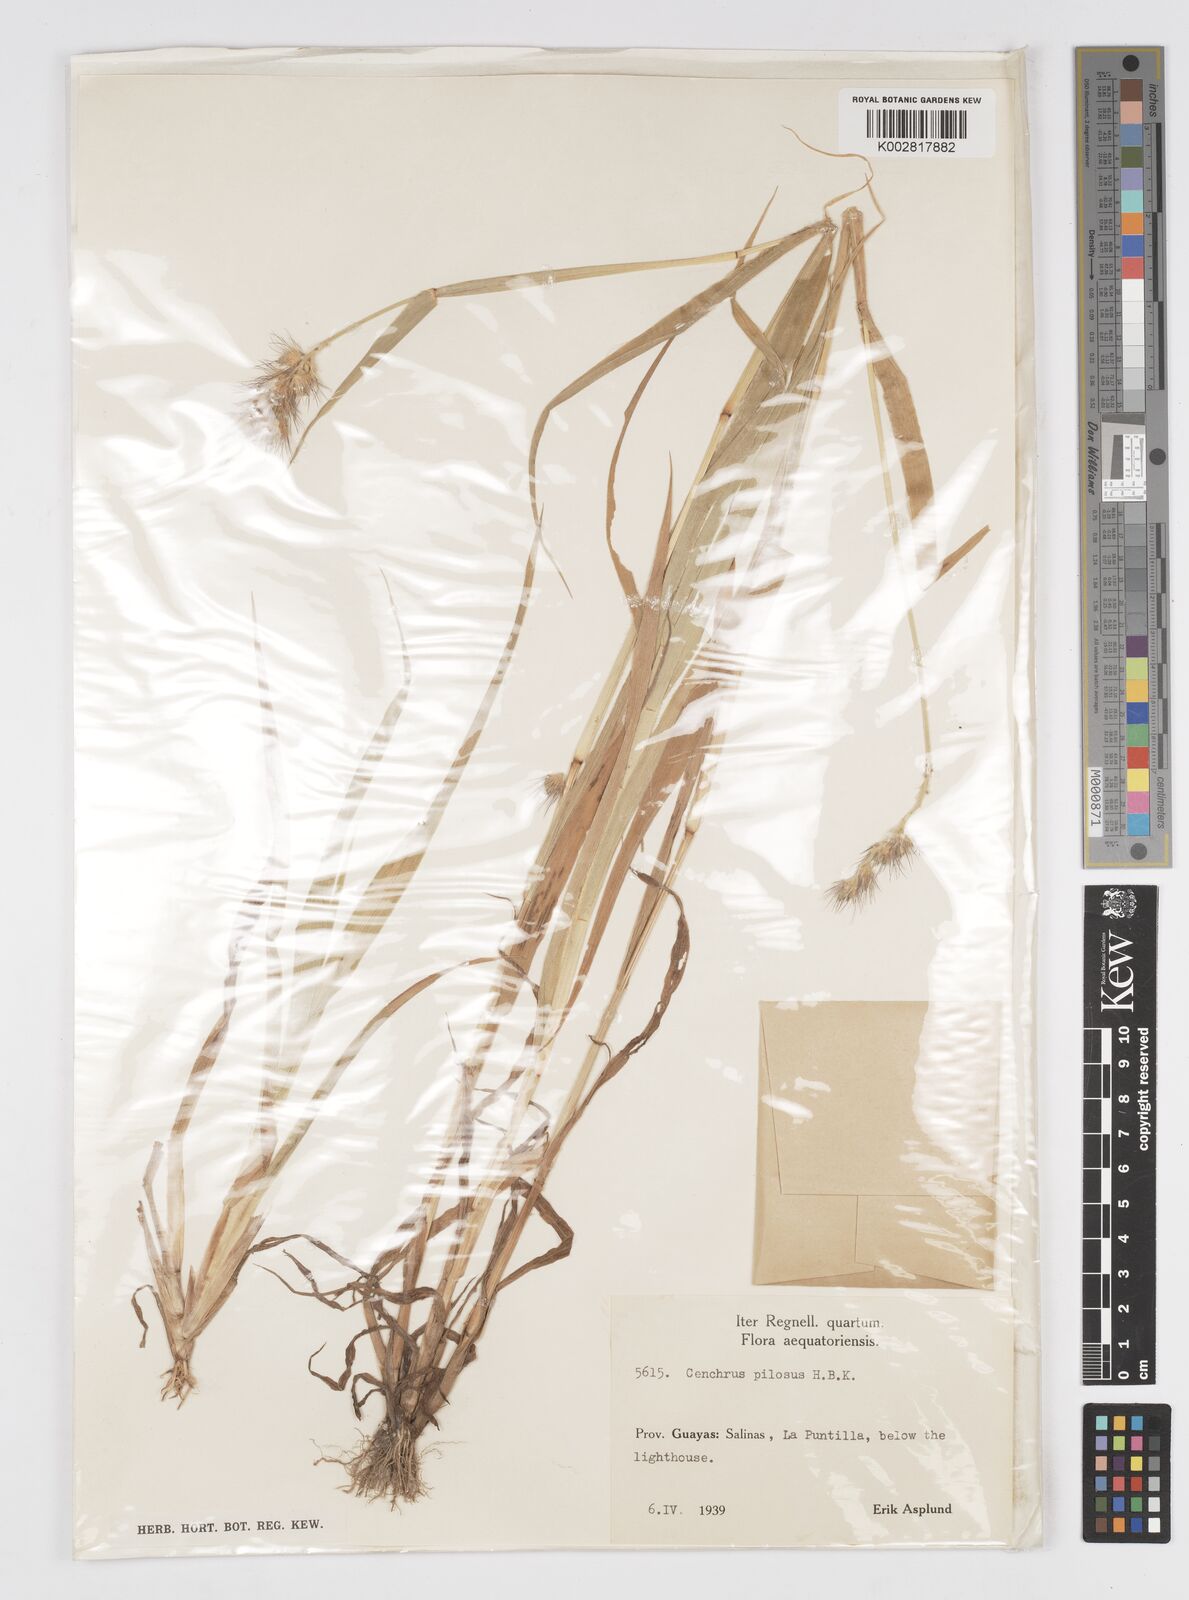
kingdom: Plantae
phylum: Tracheophyta
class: Liliopsida
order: Poales
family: Poaceae
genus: Cenchrus
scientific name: Cenchrus pilosus
